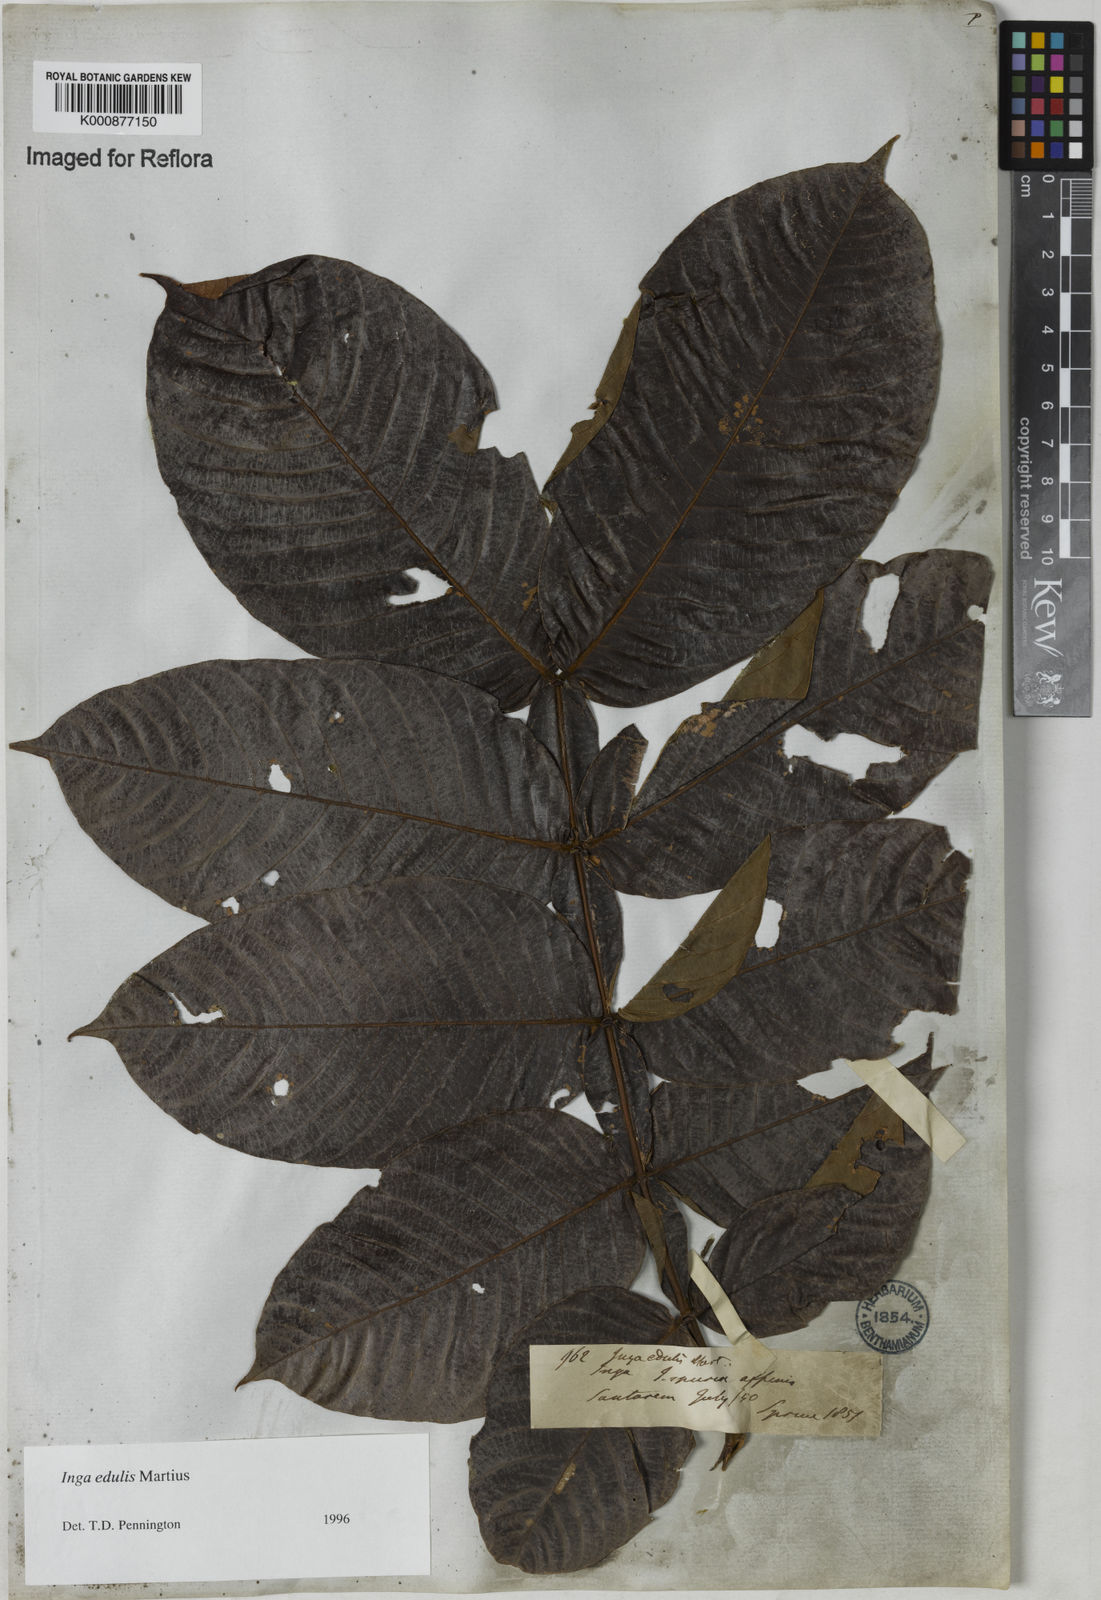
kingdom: Plantae
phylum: Tracheophyta
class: Magnoliopsida
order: Fabales
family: Fabaceae
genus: Inga
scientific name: Inga edulis
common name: Ice cream bean
